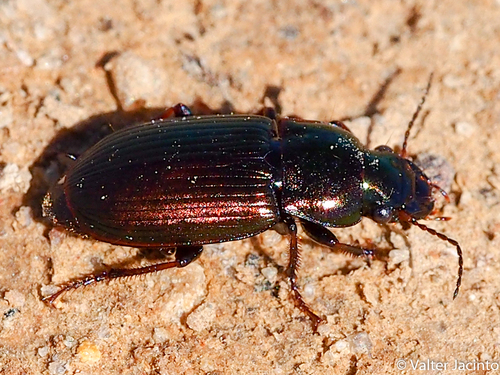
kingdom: Animalia
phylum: Arthropoda
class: Insecta
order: Coleoptera
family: Carabidae
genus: Harpalus
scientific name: Harpalus distinguendus
